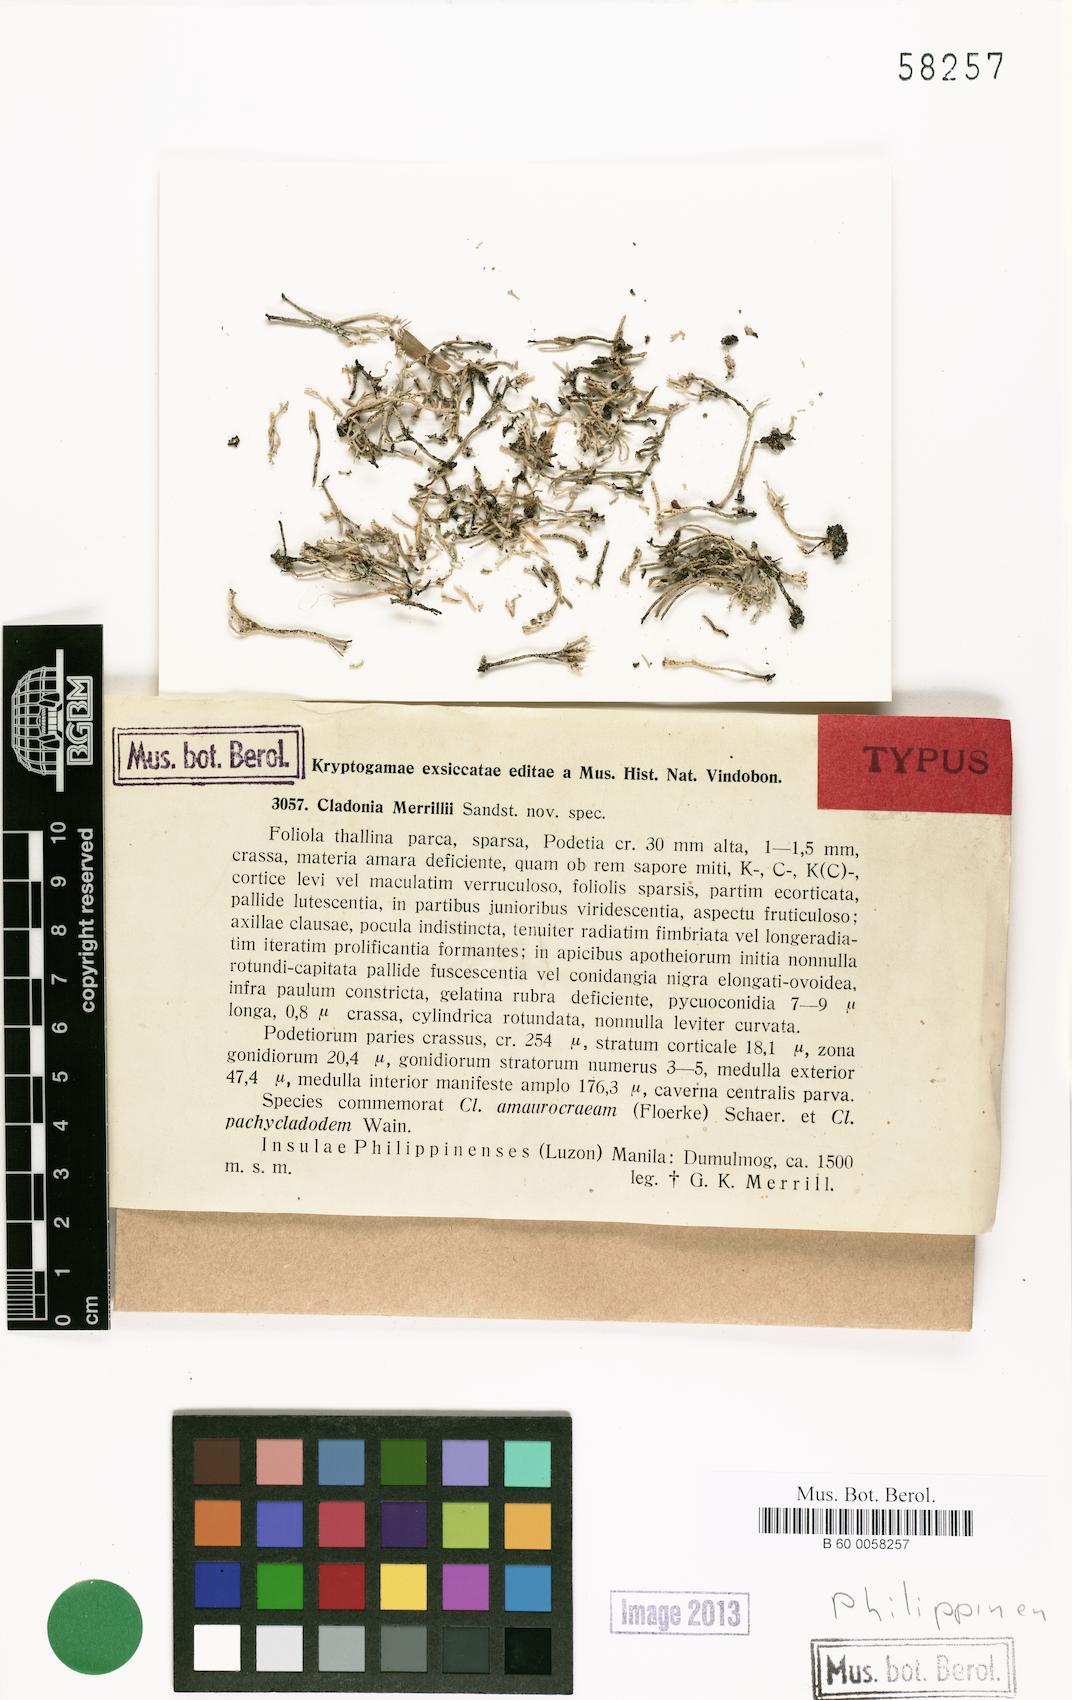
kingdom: Fungi
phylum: Ascomycota
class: Lecanoromycetes
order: Lecanorales
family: Cladoniaceae
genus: Cladonia
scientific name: Cladonia fruticulosa
